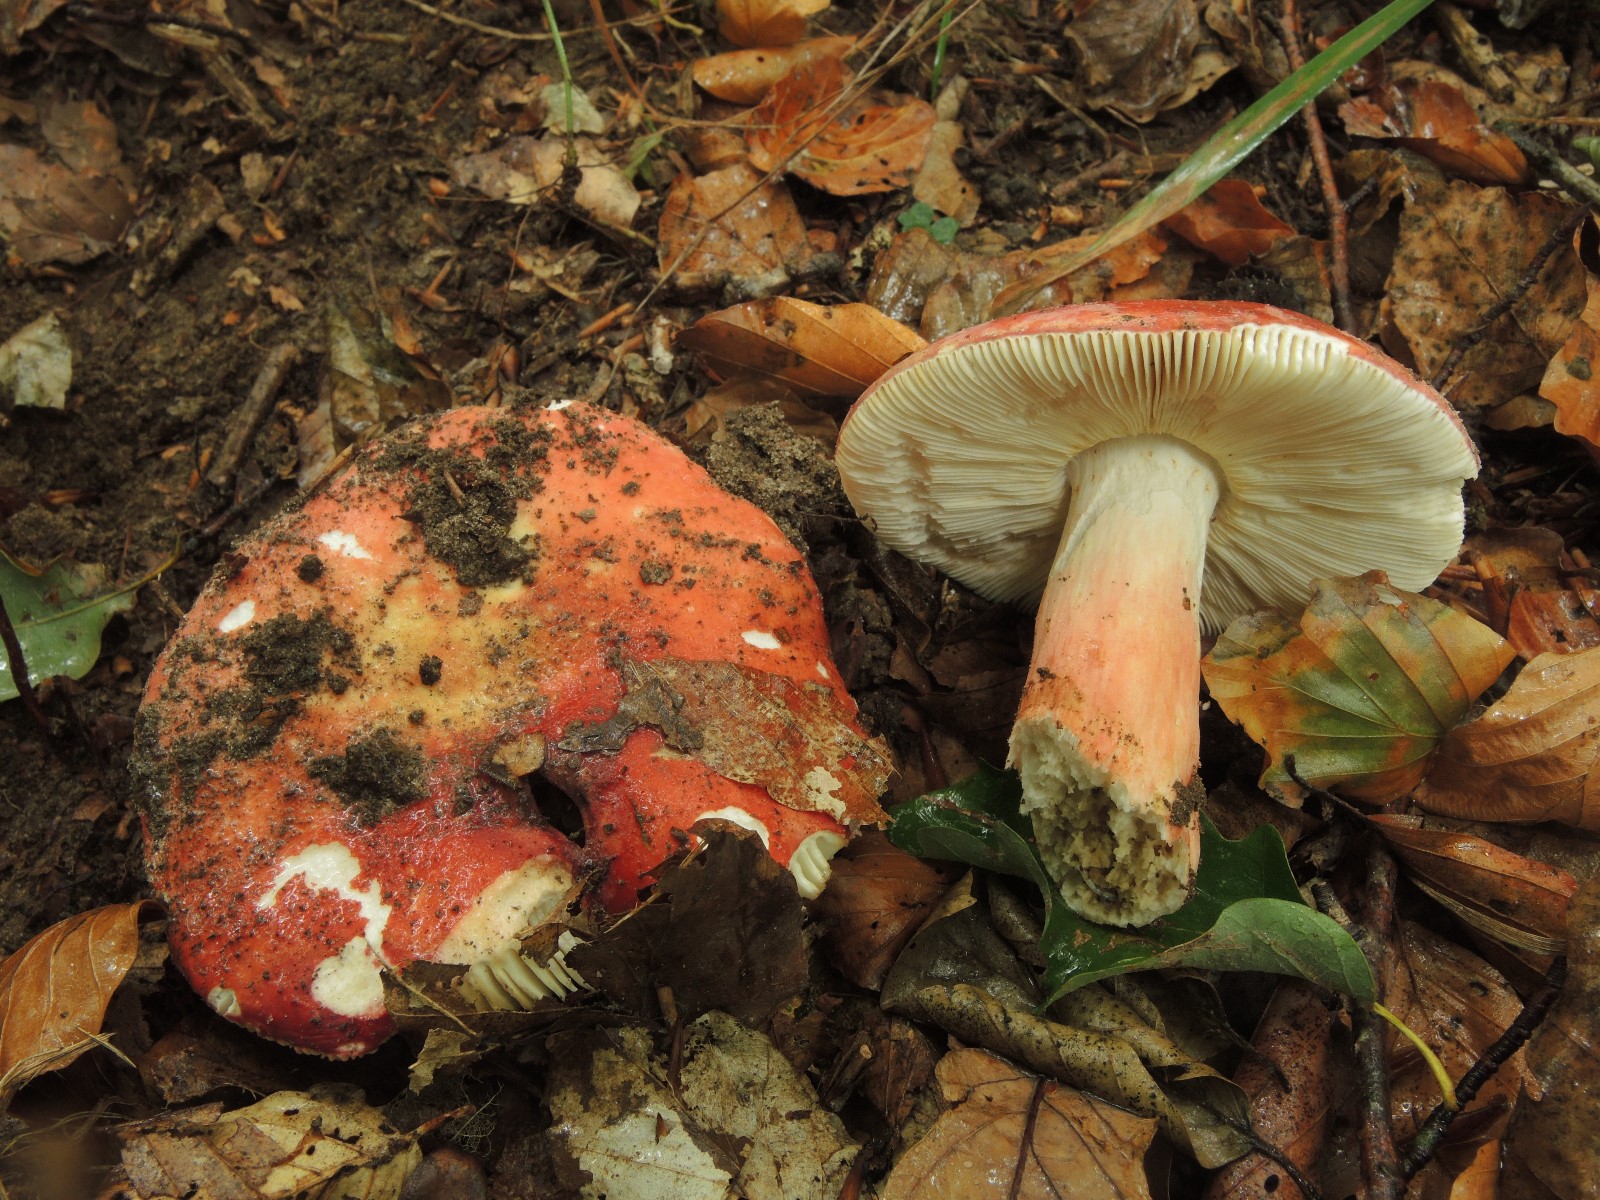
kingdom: Fungi
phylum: Basidiomycota
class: Agaricomycetes
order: Russulales
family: Russulaceae
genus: Russula
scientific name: Russula rosea
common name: fastkødet skørhat
